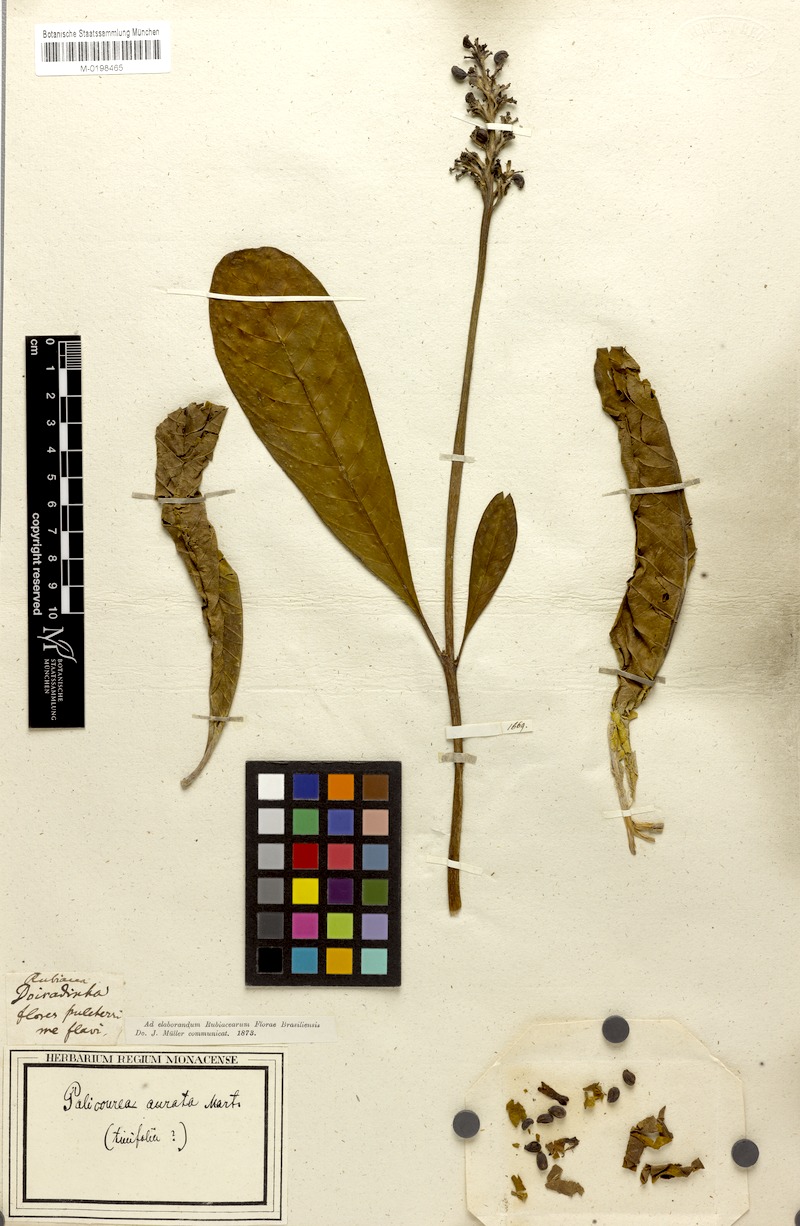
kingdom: Plantae
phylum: Tracheophyta
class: Magnoliopsida
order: Gentianales
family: Rubiaceae
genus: Palicourea
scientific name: Palicourea rigida
